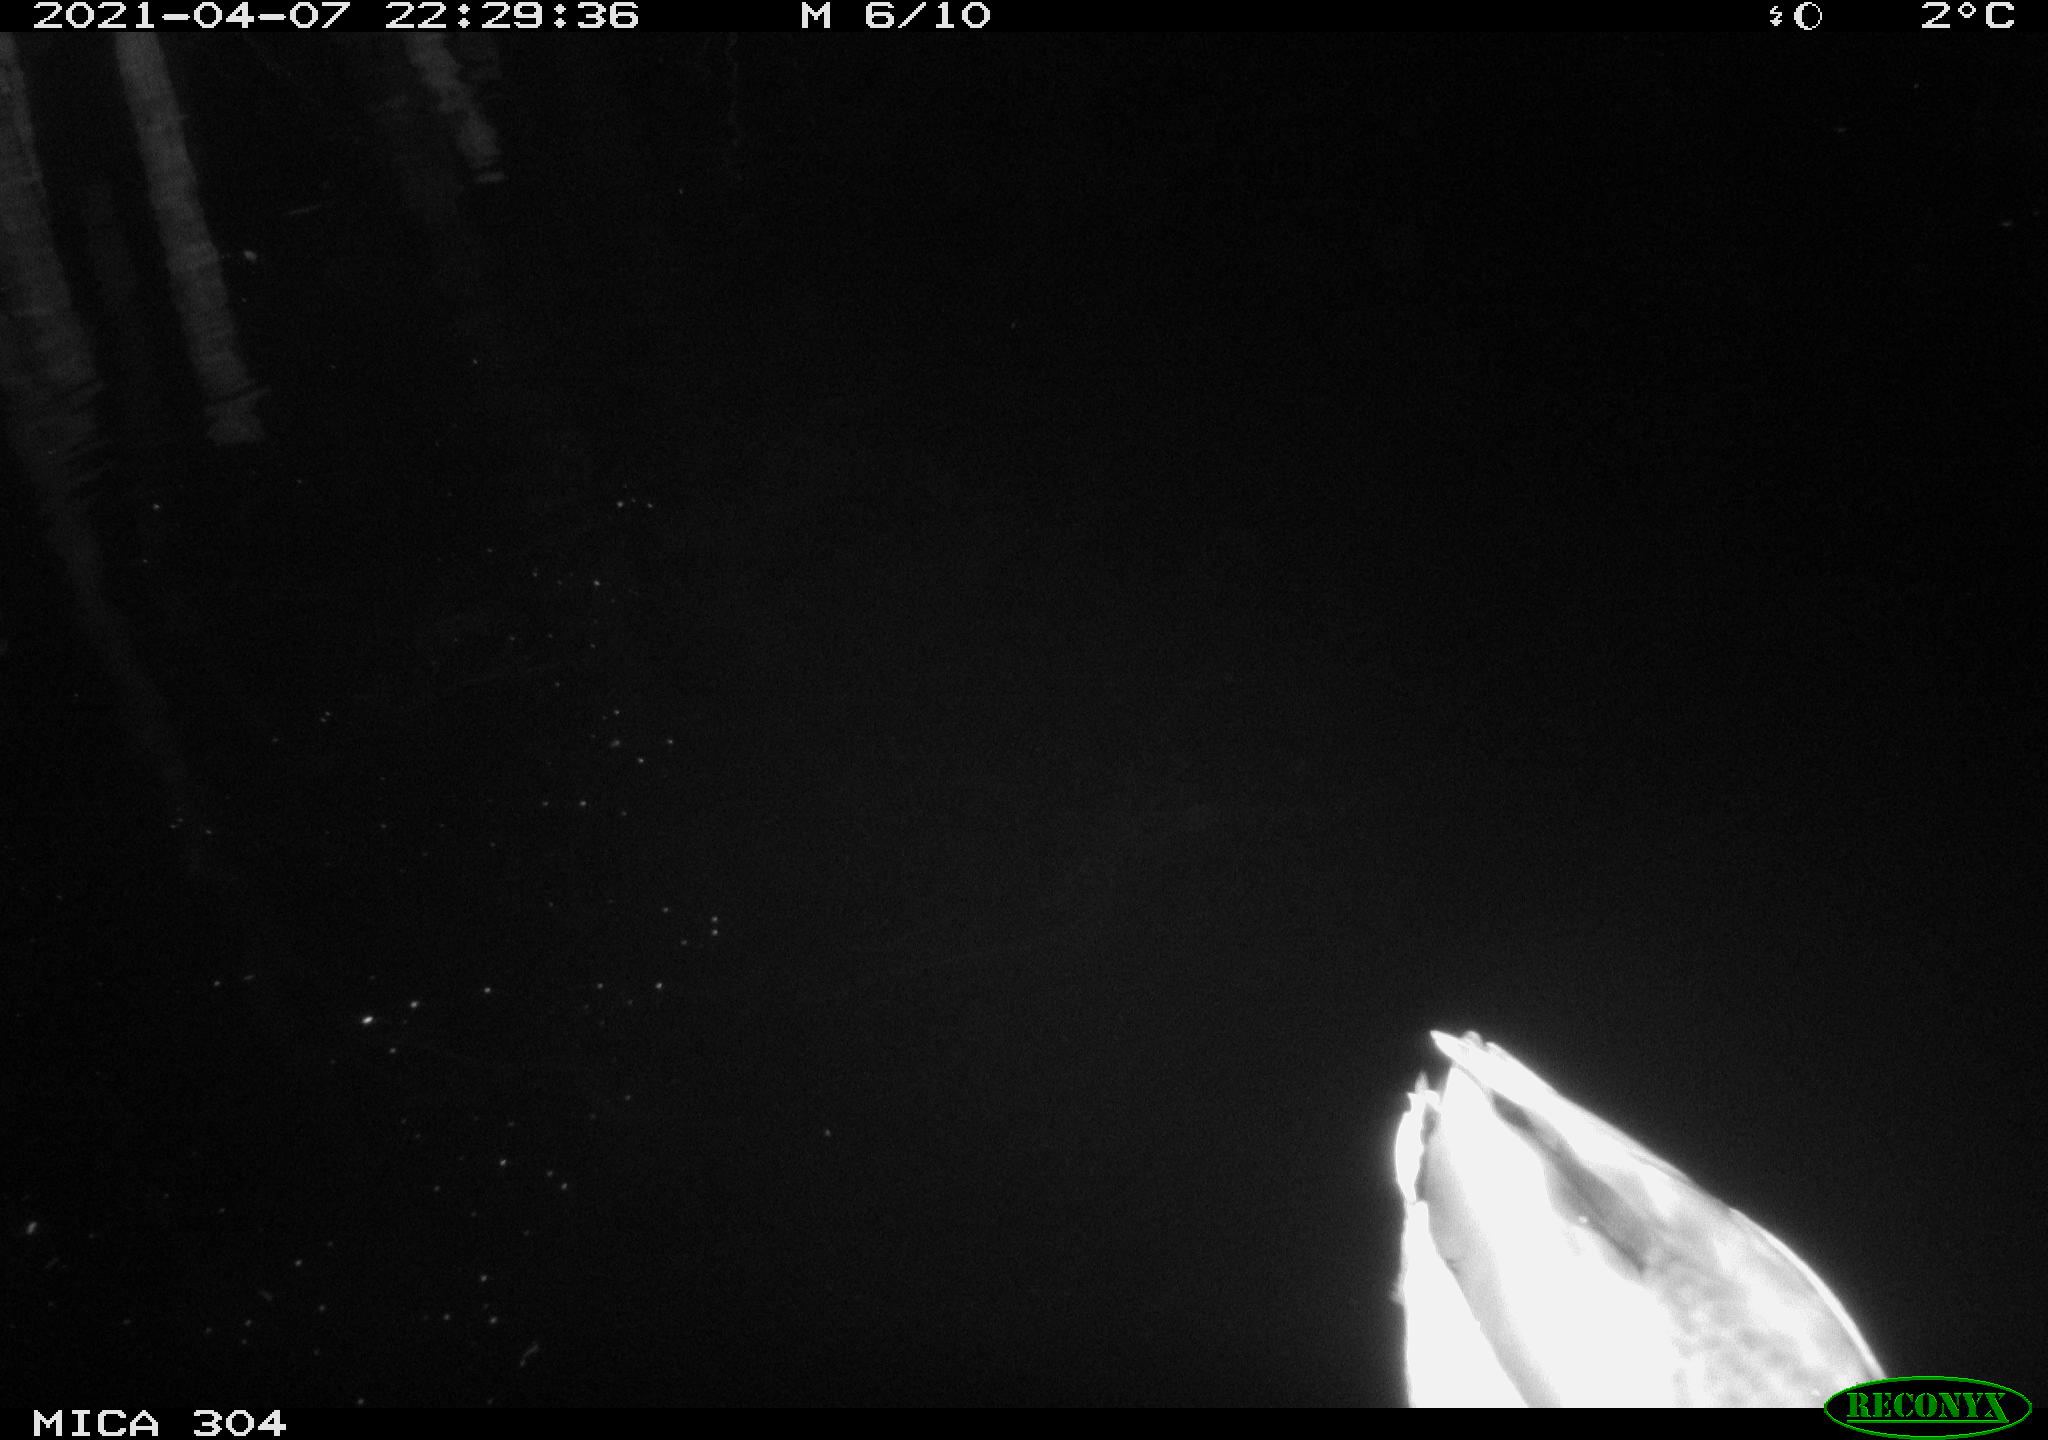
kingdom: Animalia
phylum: Chordata
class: Aves
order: Anseriformes
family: Anatidae
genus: Anas
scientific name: Anas
